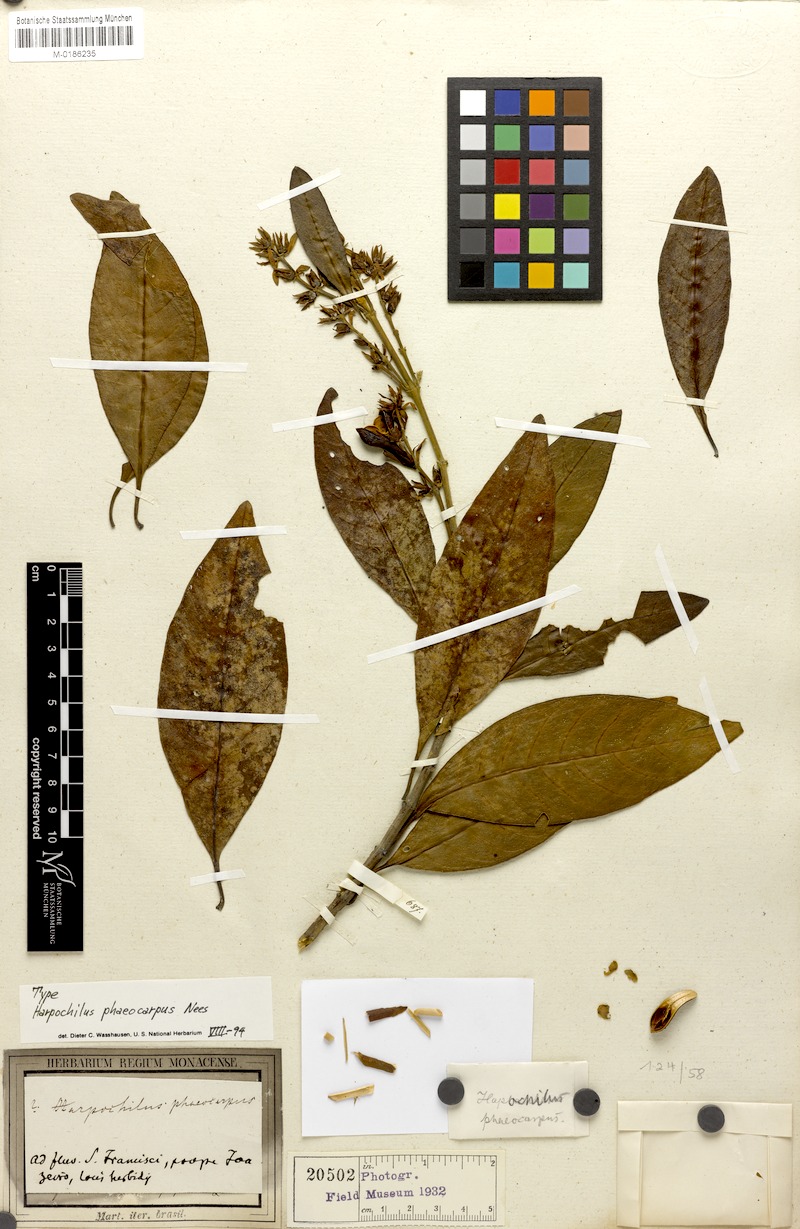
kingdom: Plantae
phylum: Tracheophyta
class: Magnoliopsida
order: Lamiales
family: Acanthaceae
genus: Harpochilus
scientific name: Harpochilus phacocarpus
